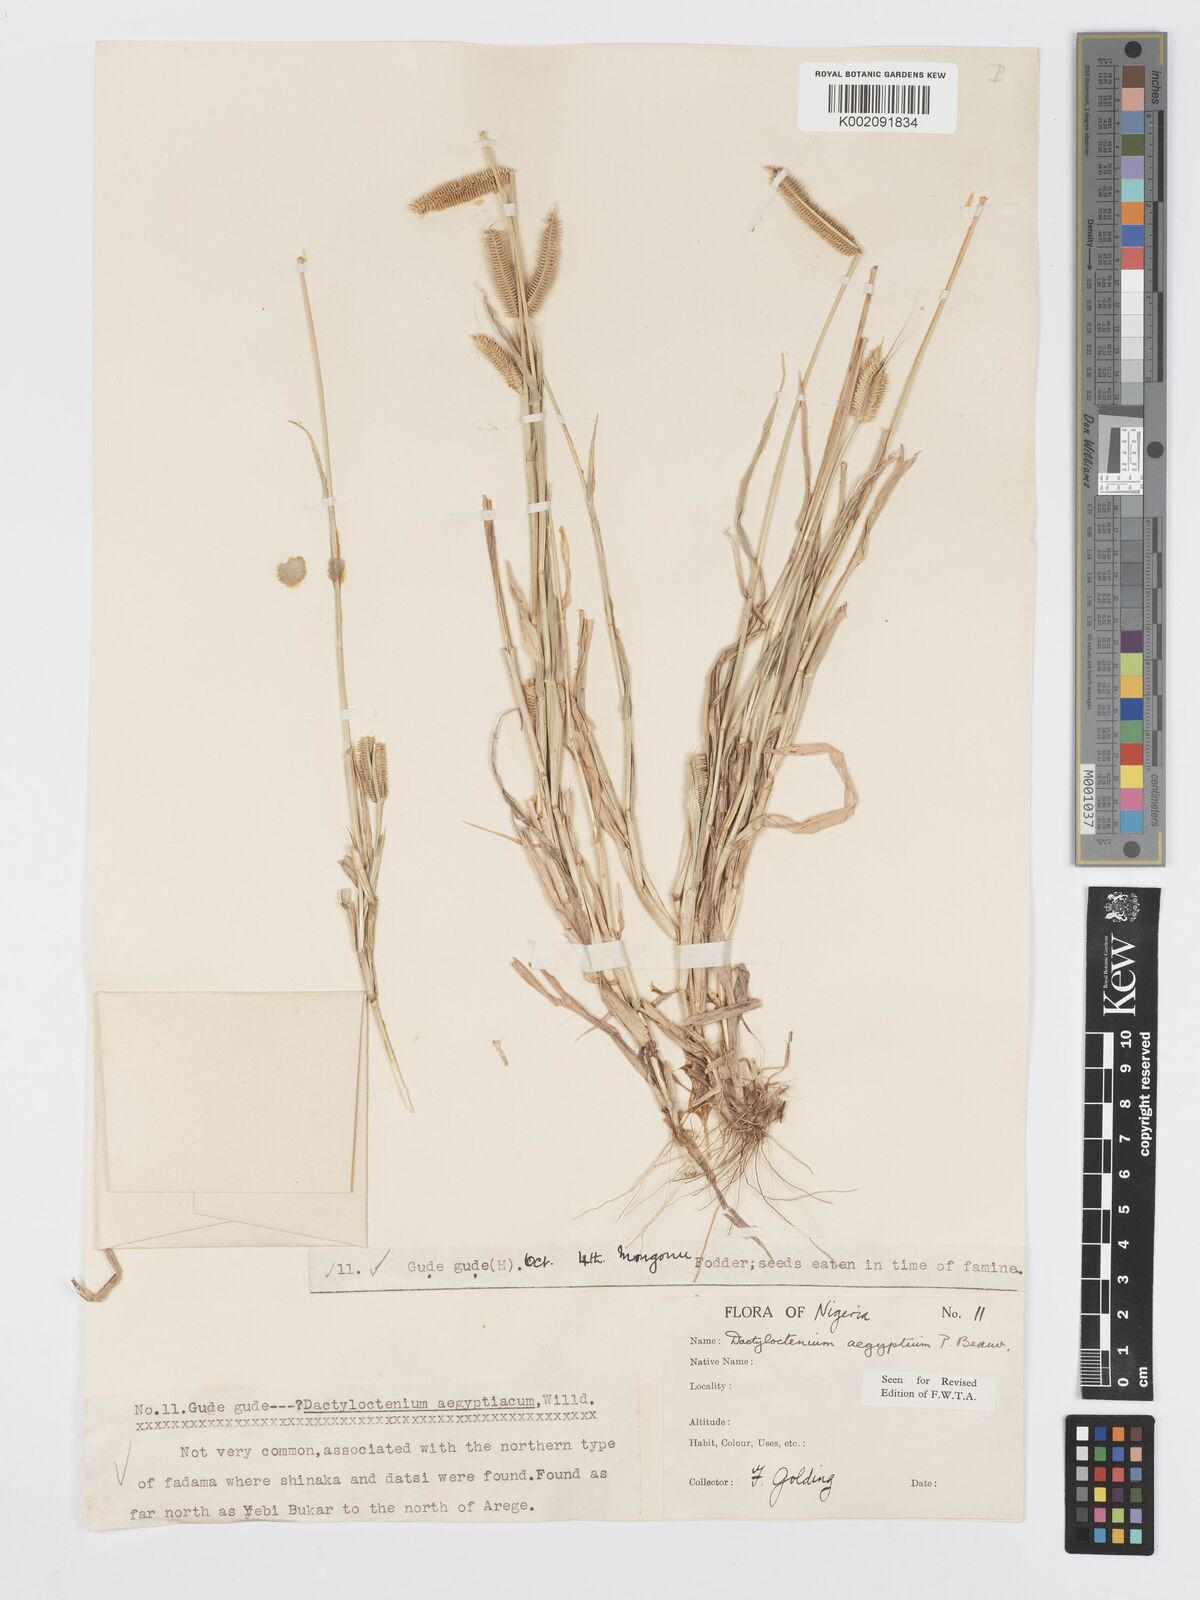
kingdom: Plantae
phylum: Tracheophyta
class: Liliopsida
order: Poales
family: Poaceae
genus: Dactyloctenium
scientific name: Dactyloctenium aegyptium
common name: Egyptian grass
